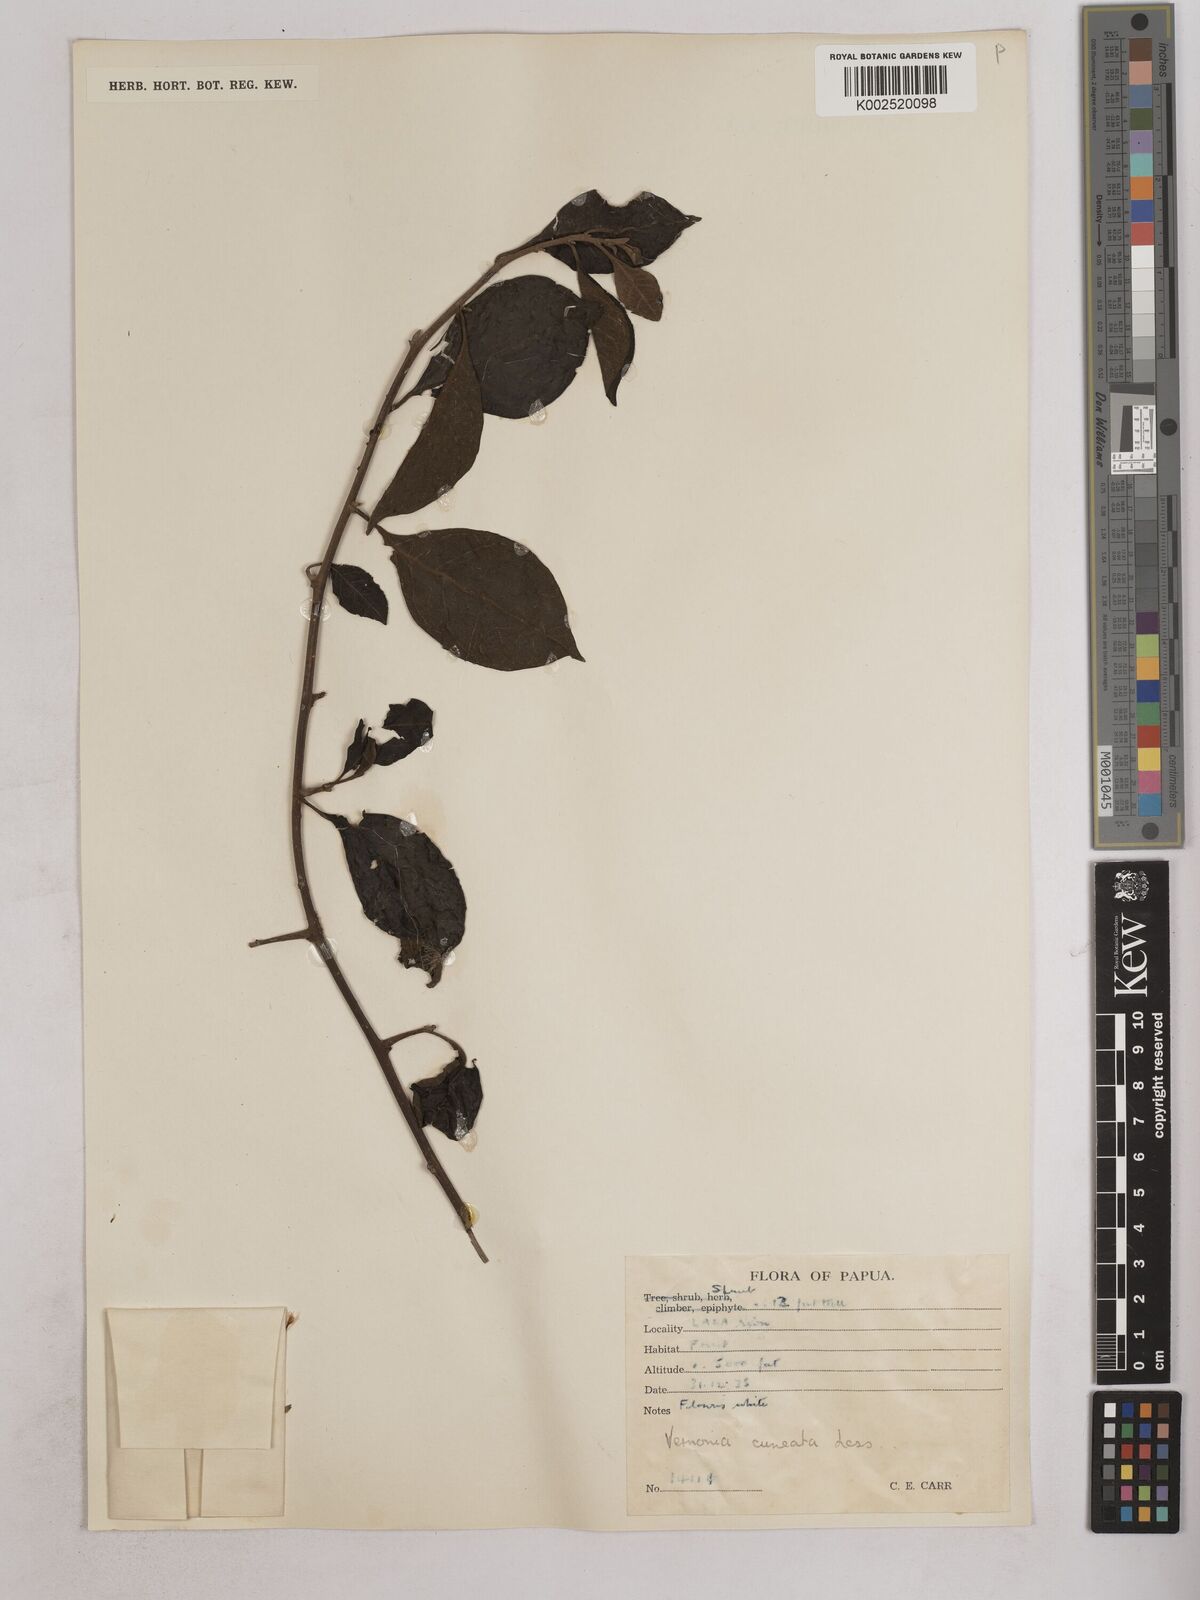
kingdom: Plantae
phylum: Tracheophyta
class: Magnoliopsida
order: Asterales
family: Asteraceae
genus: Decaneuropsis
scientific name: Decaneuropsis obovata
